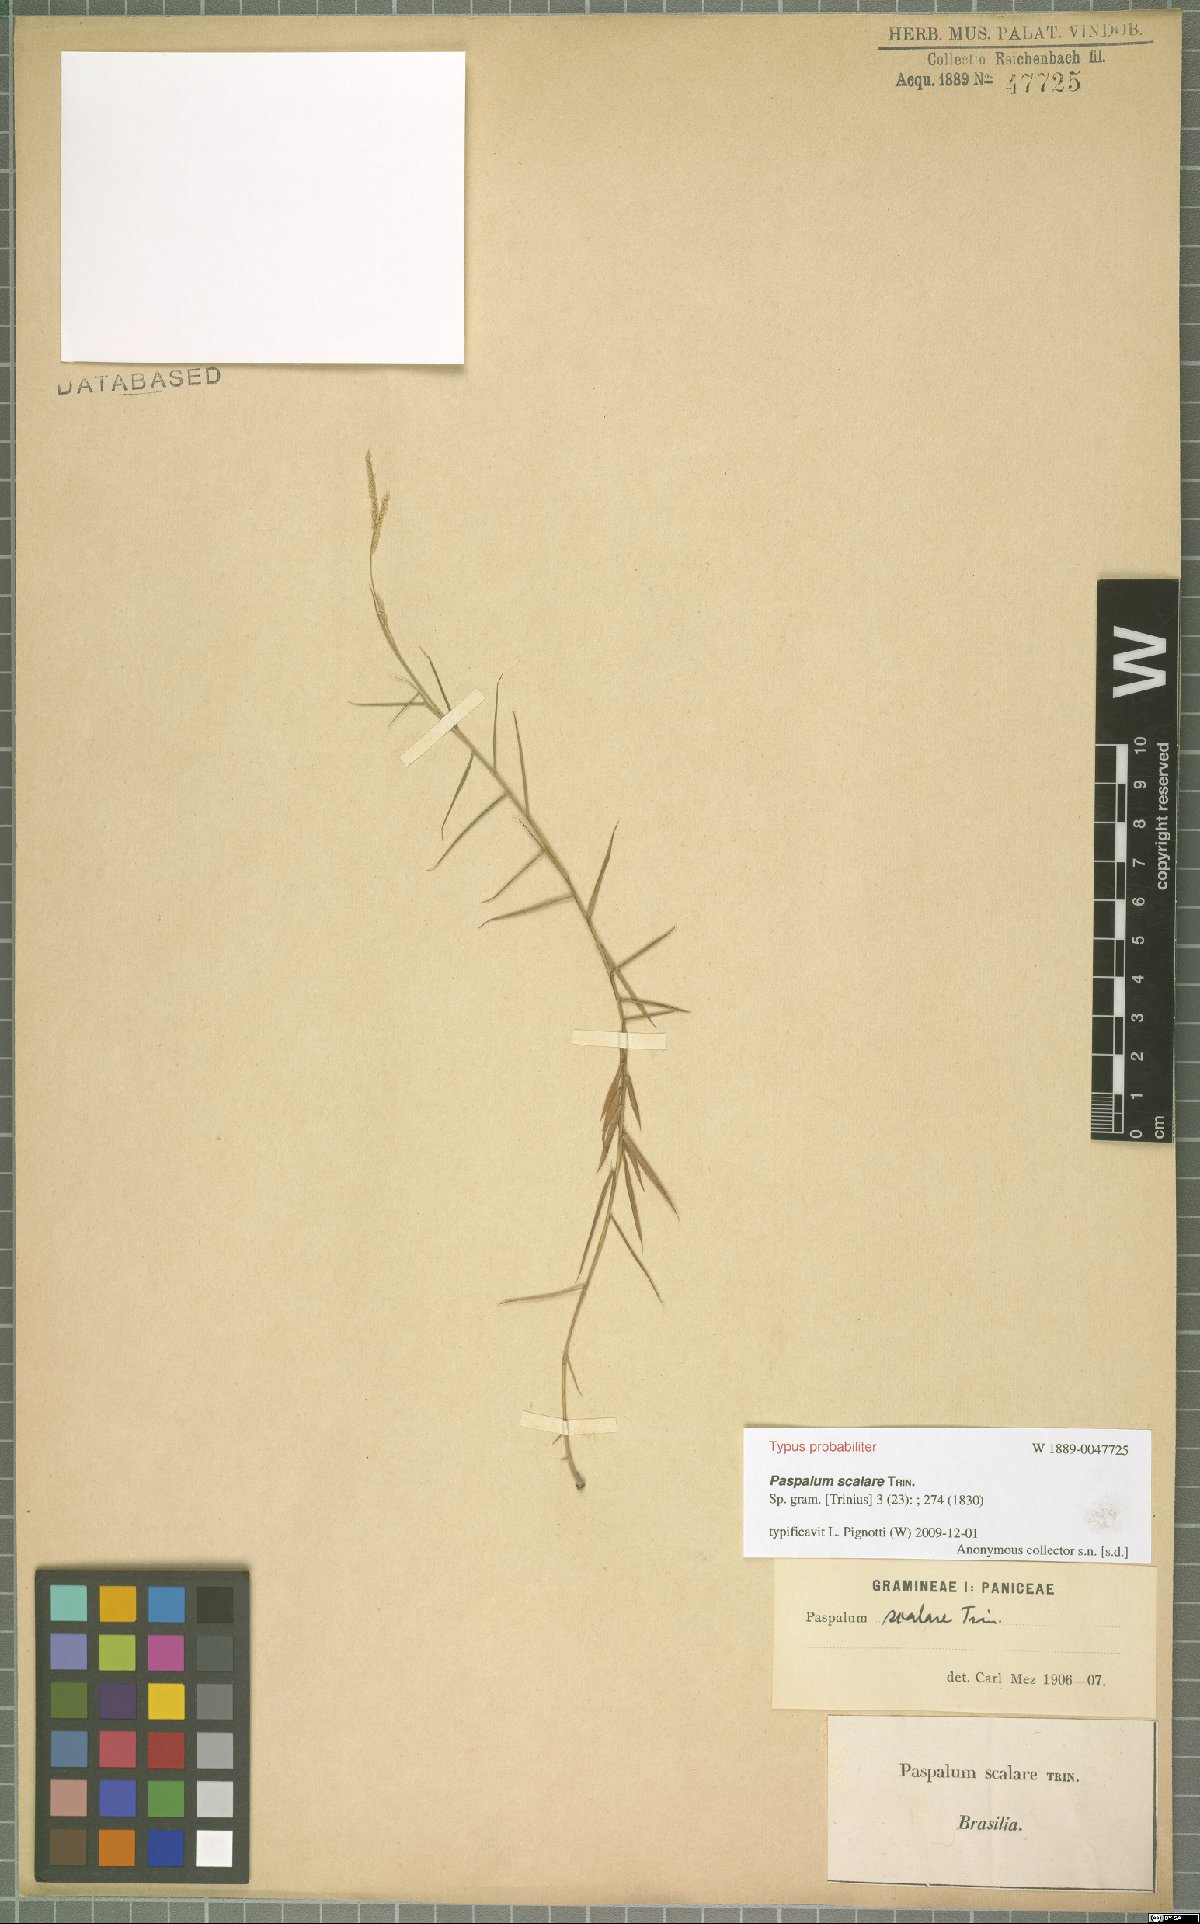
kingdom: Plantae
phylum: Tracheophyta
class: Liliopsida
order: Poales
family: Poaceae
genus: Paspalum
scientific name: Paspalum scalare
